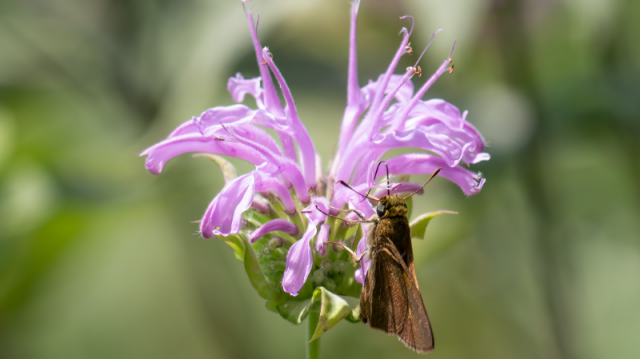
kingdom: Animalia
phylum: Arthropoda
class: Insecta
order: Lepidoptera
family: Hesperiidae
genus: Euphyes
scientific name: Euphyes vestris
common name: Dun Skipper
